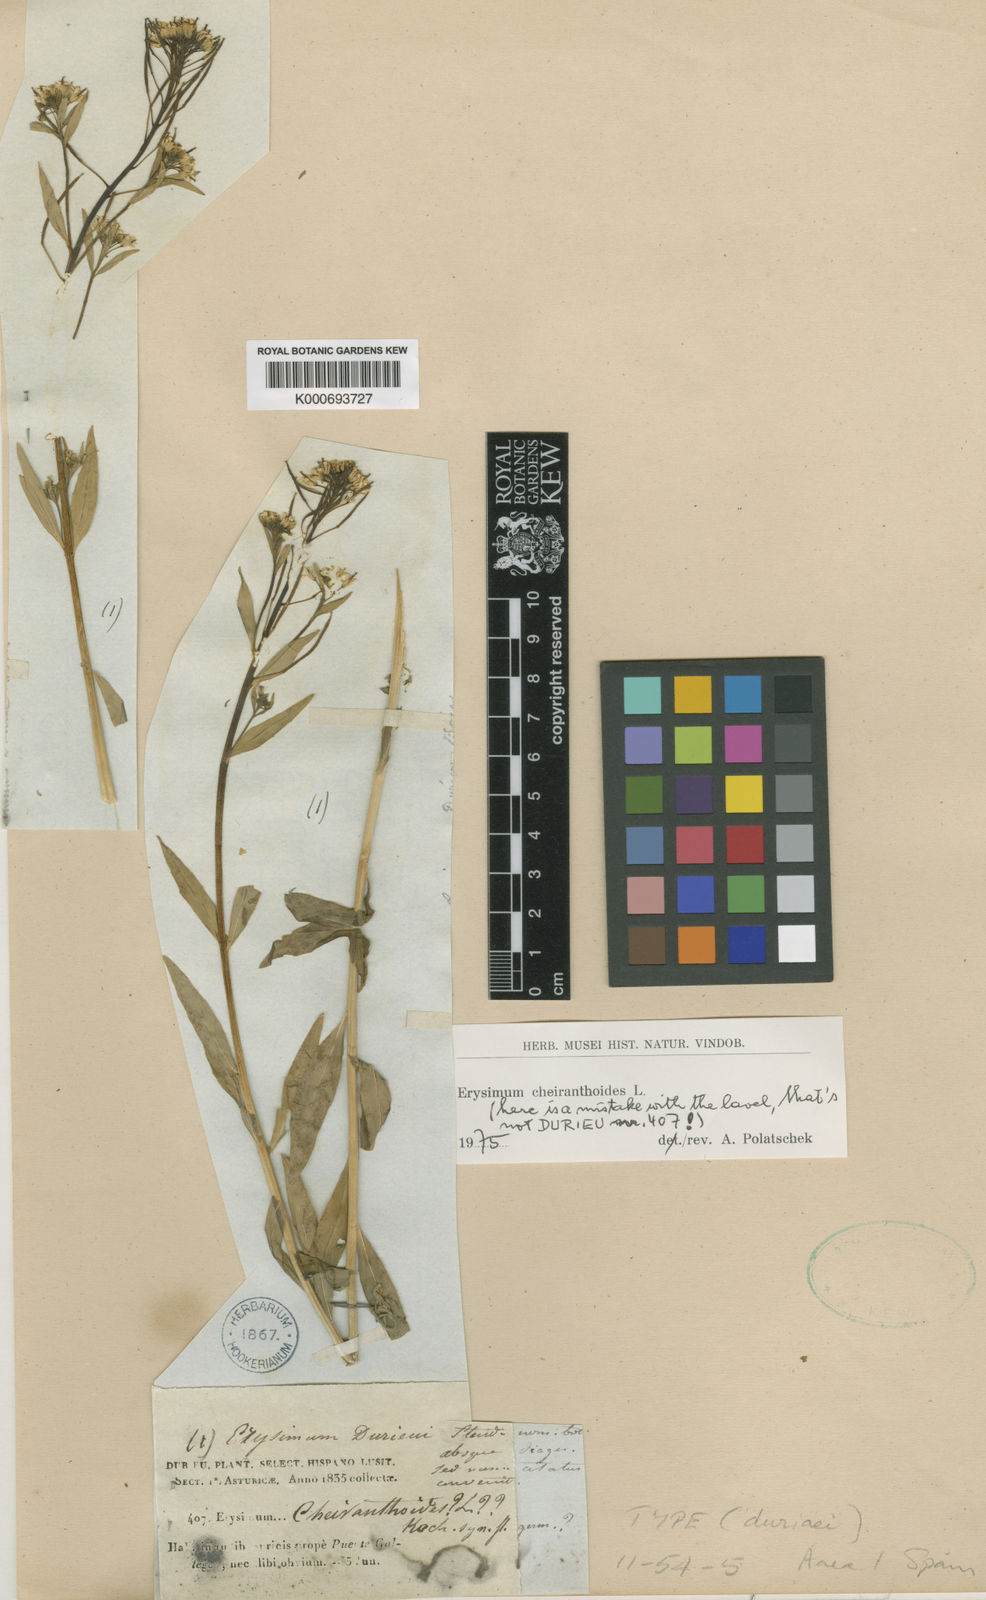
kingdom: Plantae
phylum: Tracheophyta
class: Magnoliopsida
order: Brassicales
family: Brassicaceae
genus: Erysimum
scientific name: Erysimum menziesii
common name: Menzies's wallflower
